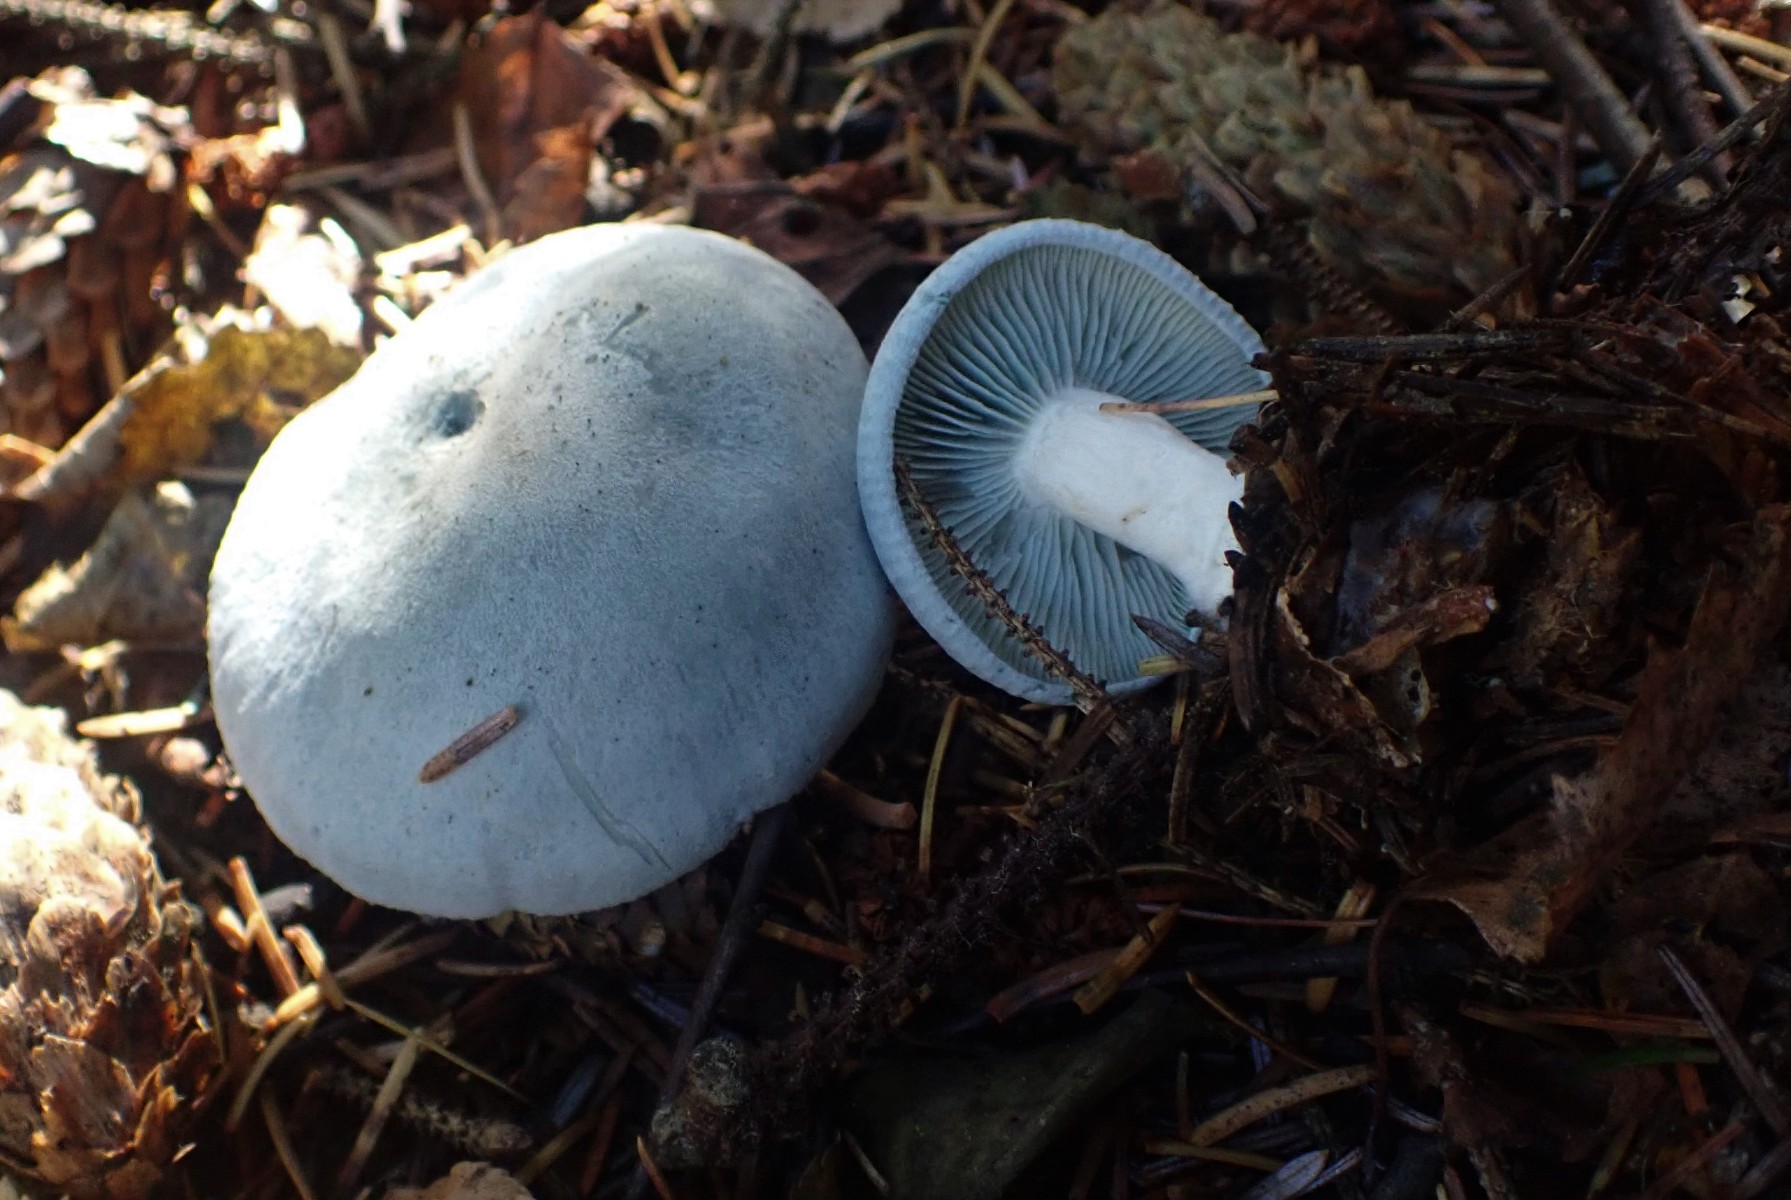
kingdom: Fungi
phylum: Basidiomycota
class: Agaricomycetes
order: Agaricales
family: Tricholomataceae
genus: Clitocybe
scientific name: Clitocybe odora
